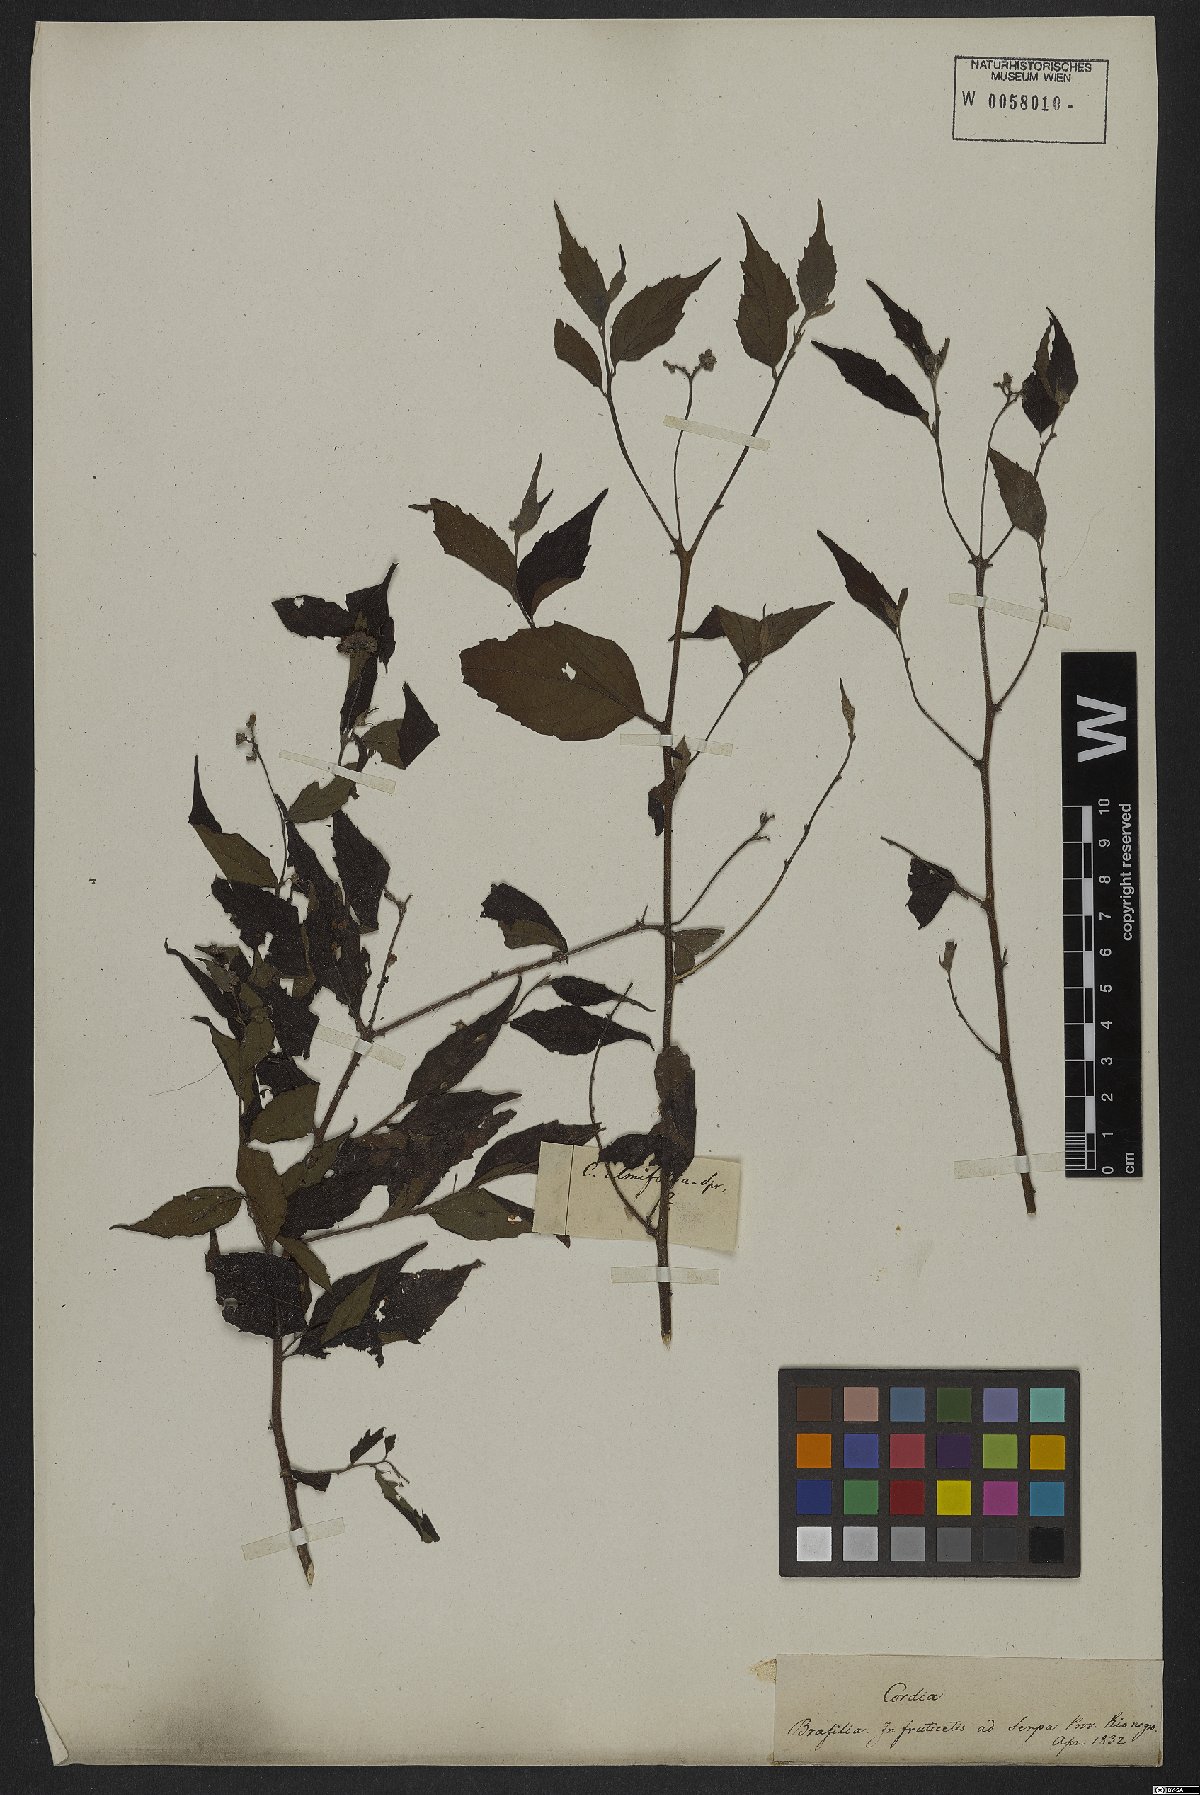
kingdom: Plantae
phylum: Tracheophyta
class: Magnoliopsida
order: Boraginales
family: Cordiaceae
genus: Varronia
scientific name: Varronia polycephala
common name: Black-sage
